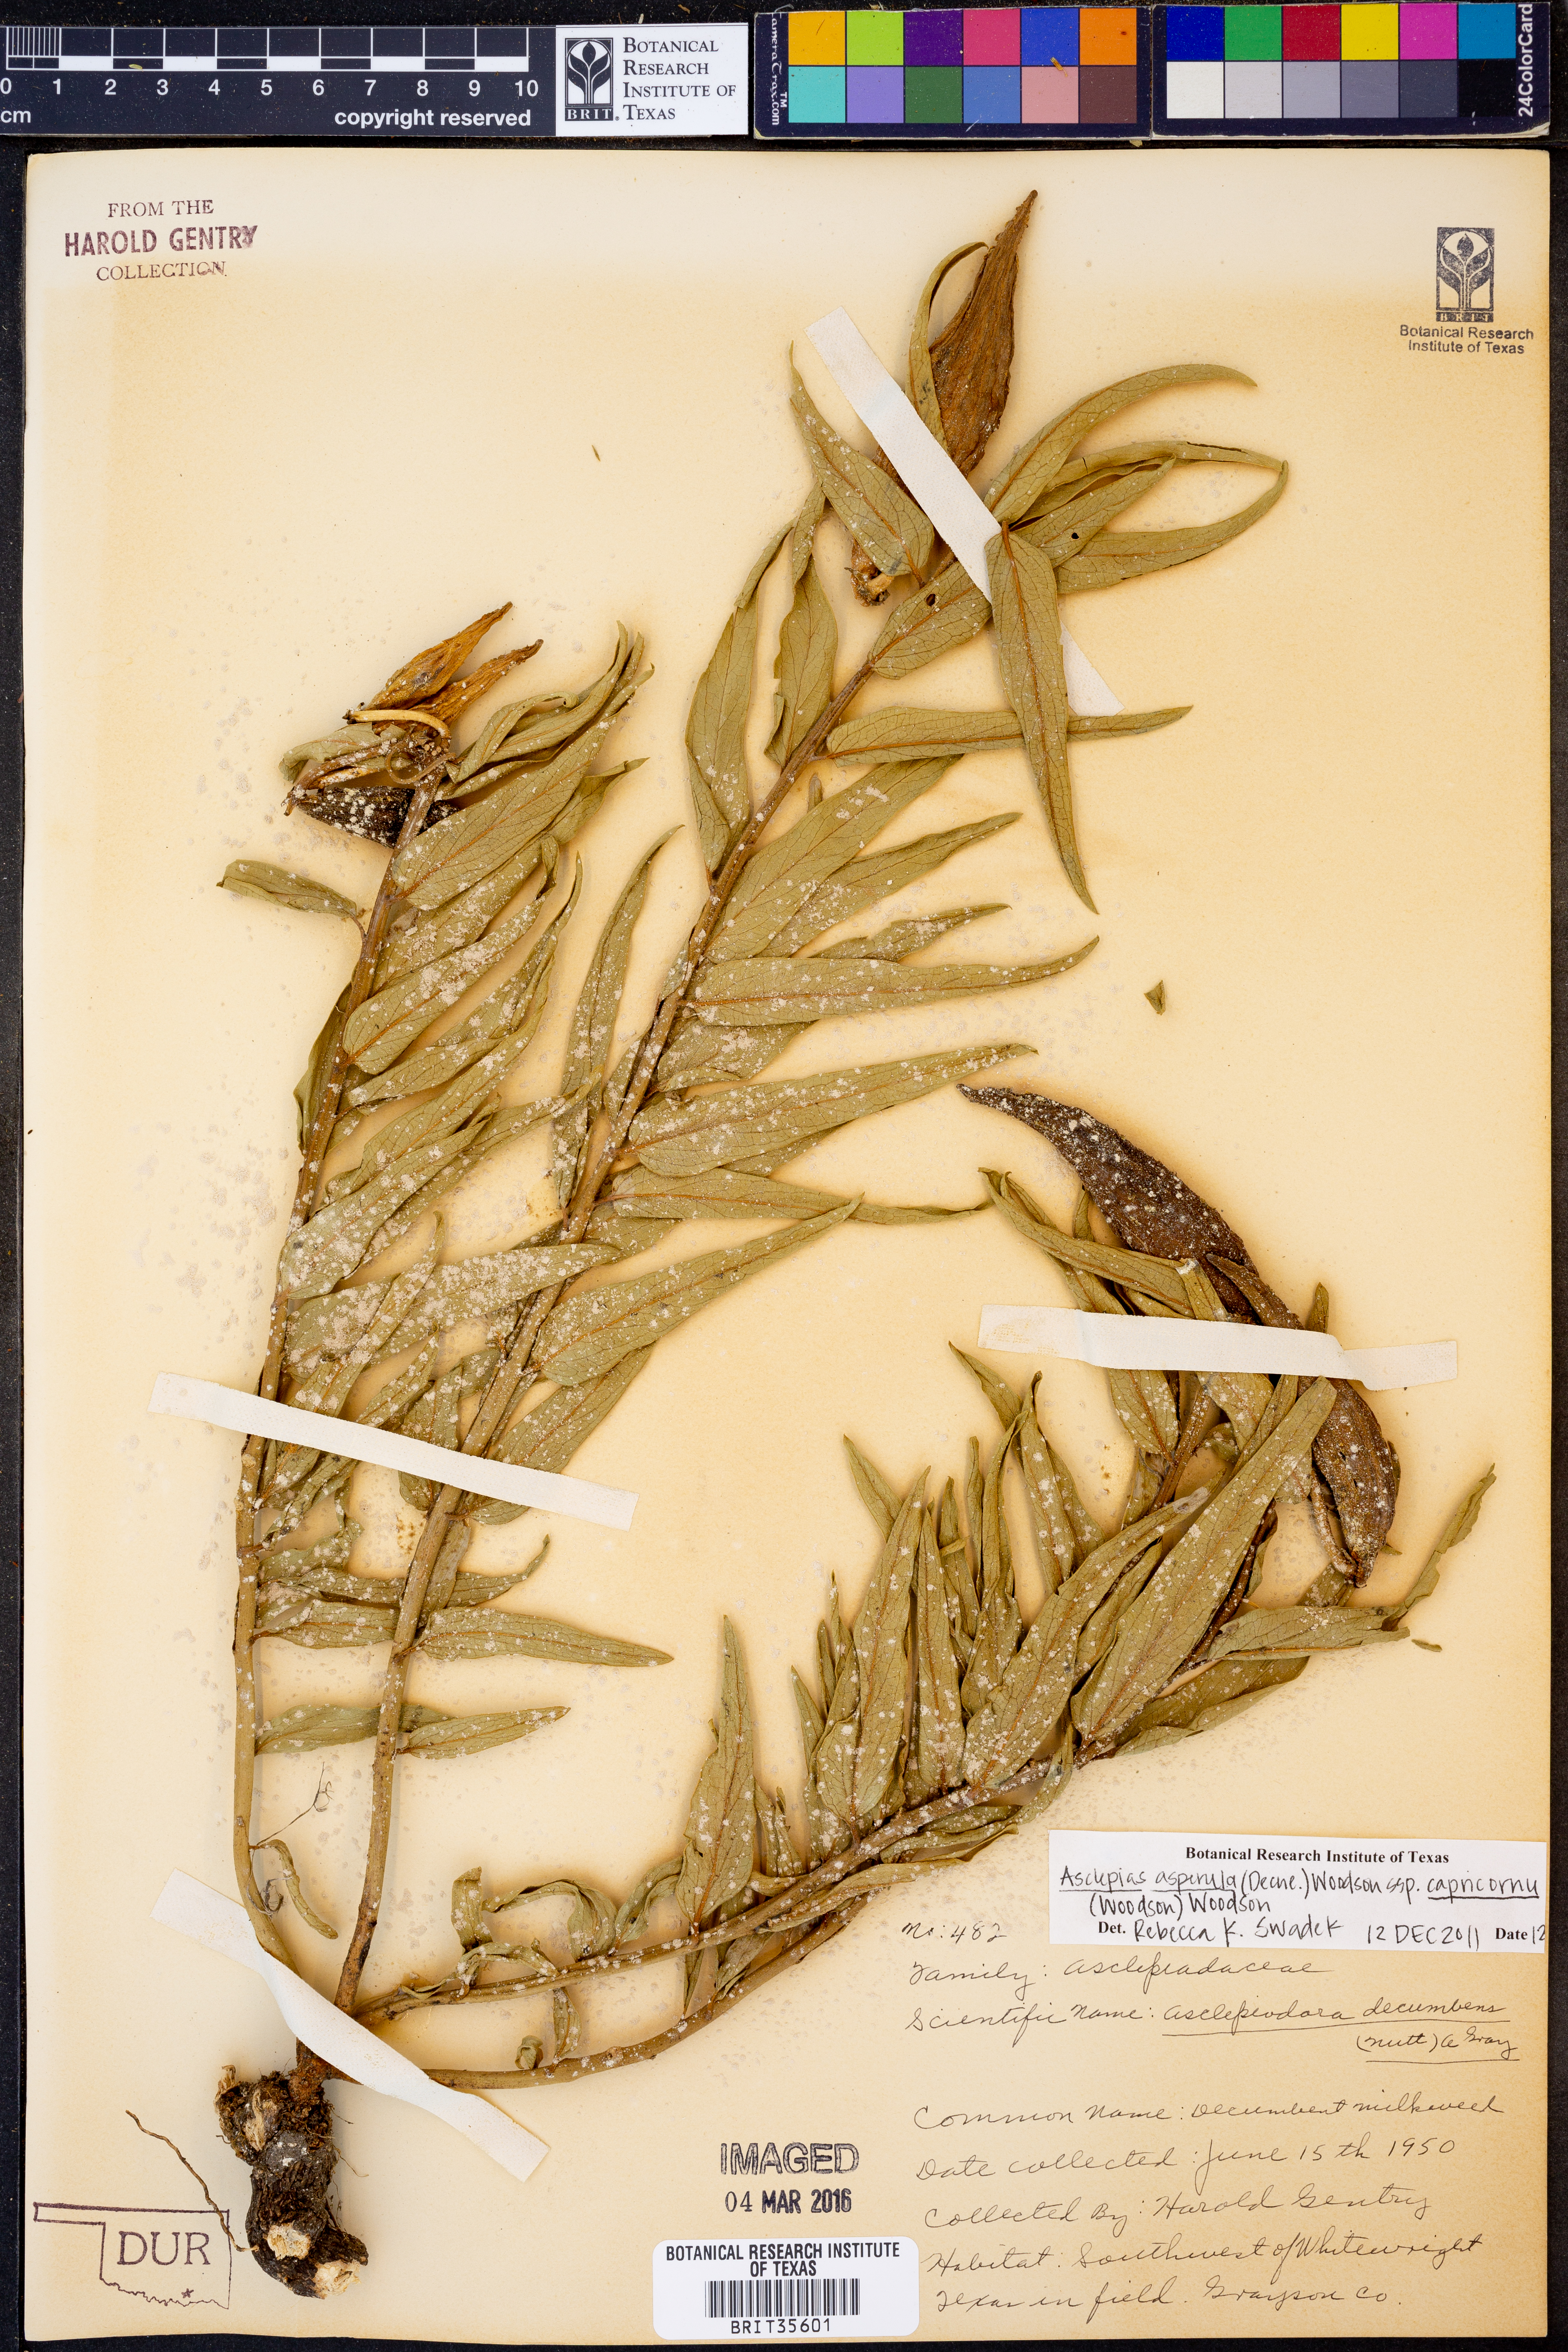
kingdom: Plantae
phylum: Tracheophyta
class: Magnoliopsida
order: Gentianales
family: Apocynaceae
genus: Asclepias
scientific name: Asclepias asperula
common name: Antelope horns
